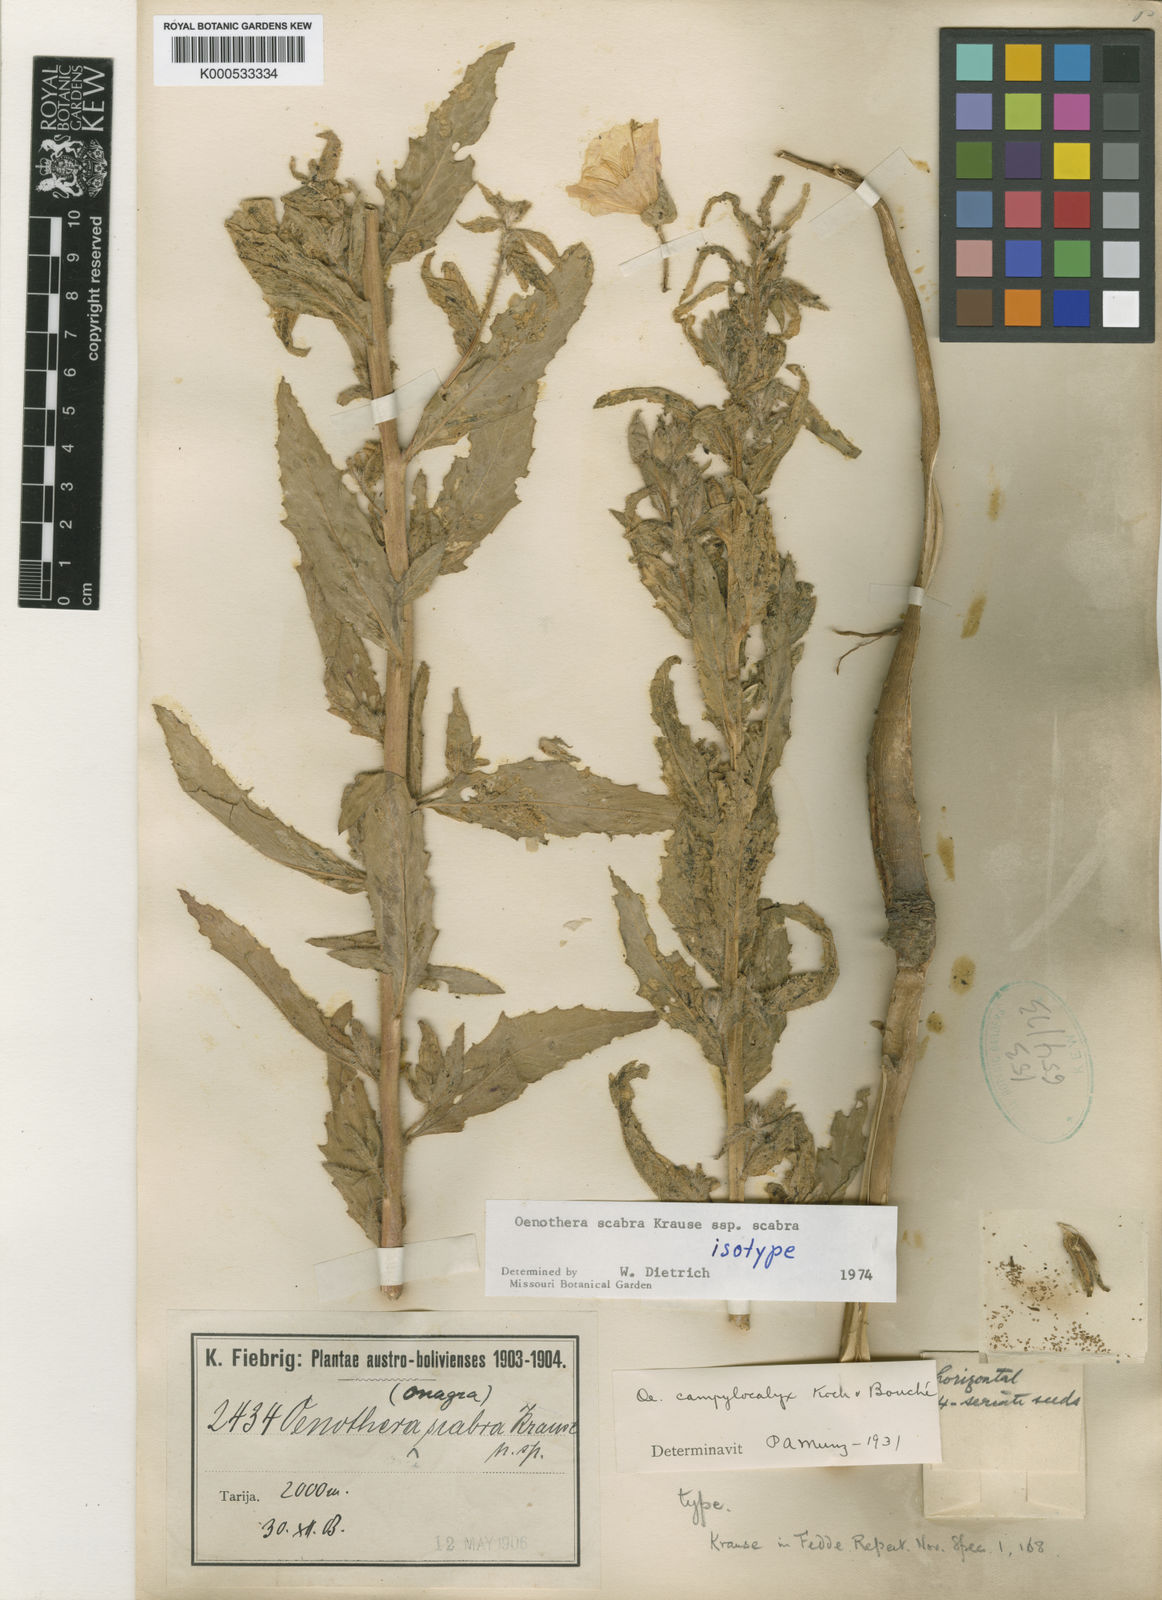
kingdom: Plantae
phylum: Tracheophyta
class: Magnoliopsida
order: Myrtales
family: Onagraceae
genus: Oenothera
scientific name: Oenothera scabra
